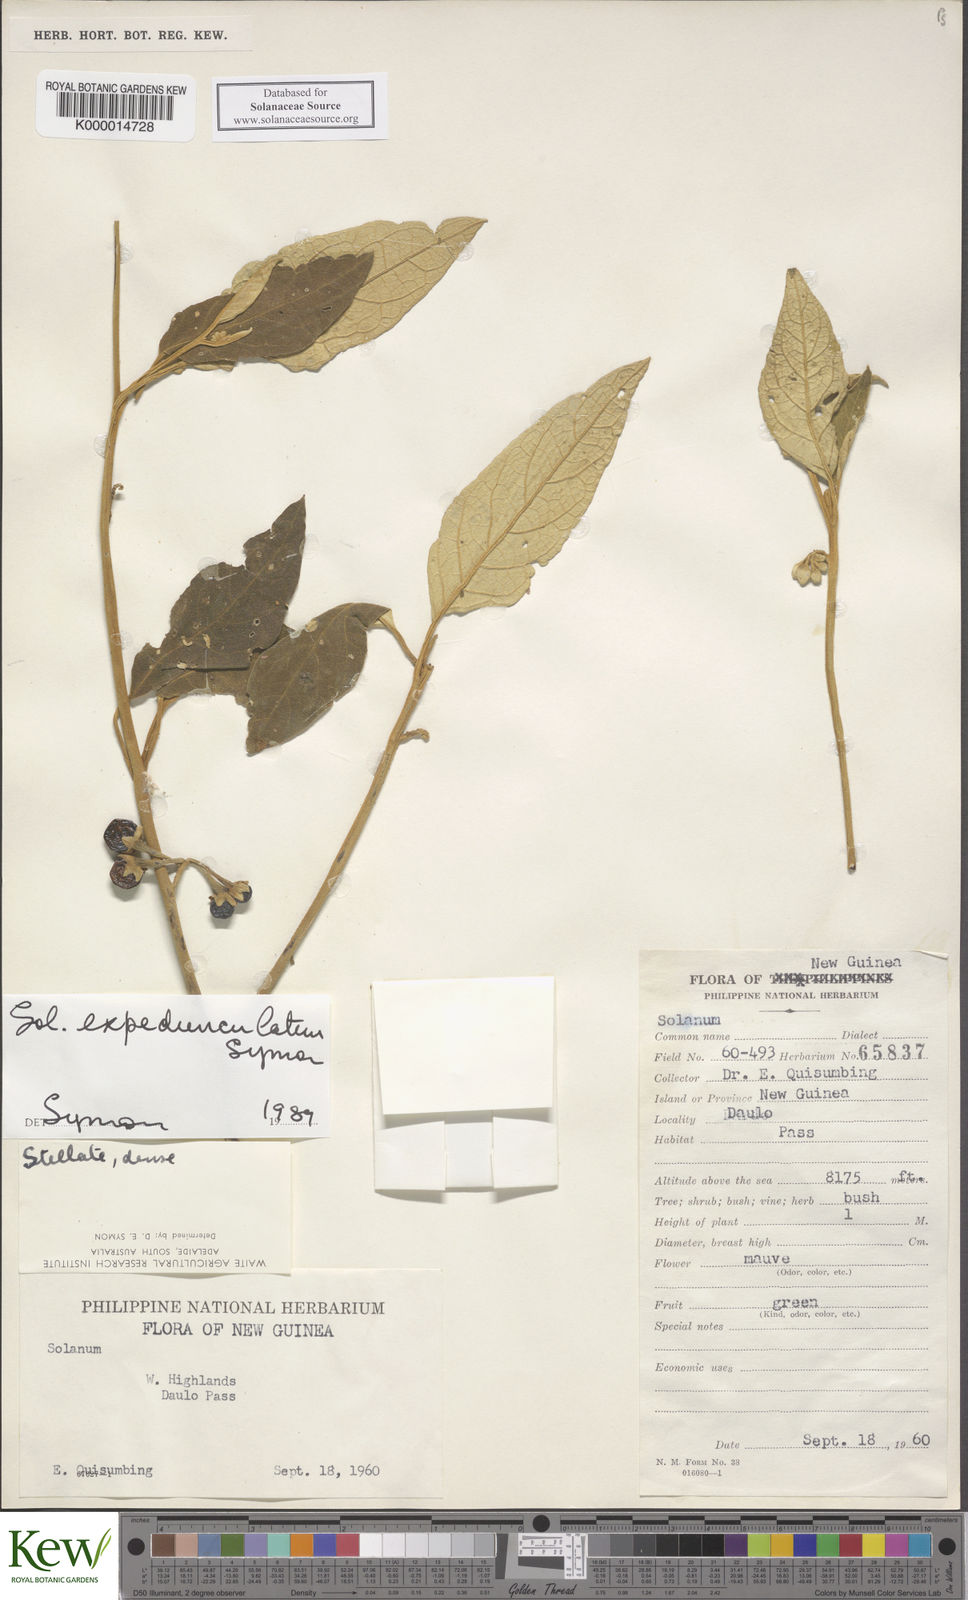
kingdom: Plantae
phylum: Tracheophyta
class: Magnoliopsida
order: Solanales
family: Solanaceae
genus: Solanum
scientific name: Solanum expedunculatum
